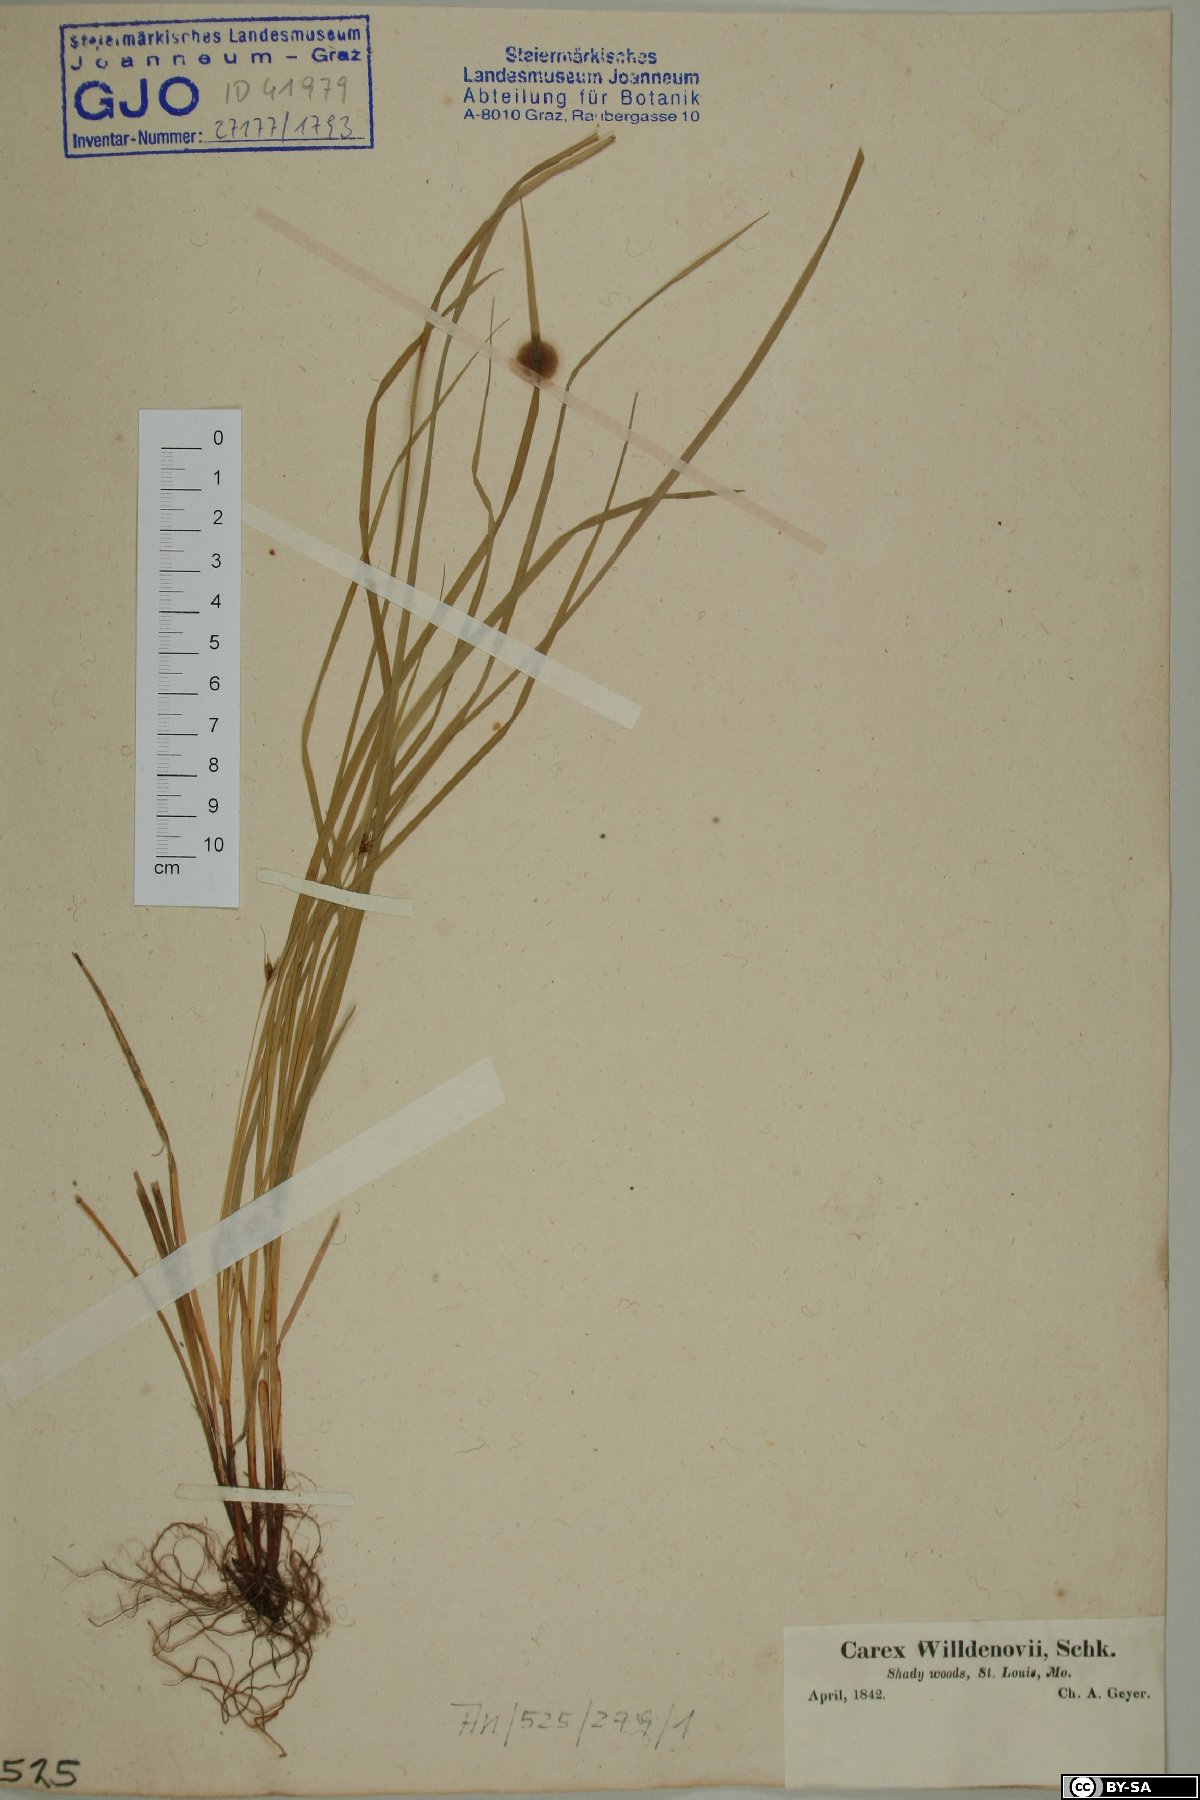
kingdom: Plantae
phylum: Tracheophyta
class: Liliopsida
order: Poales
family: Cyperaceae
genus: Carex
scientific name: Carex willdenowii
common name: Willdenow's sedge
